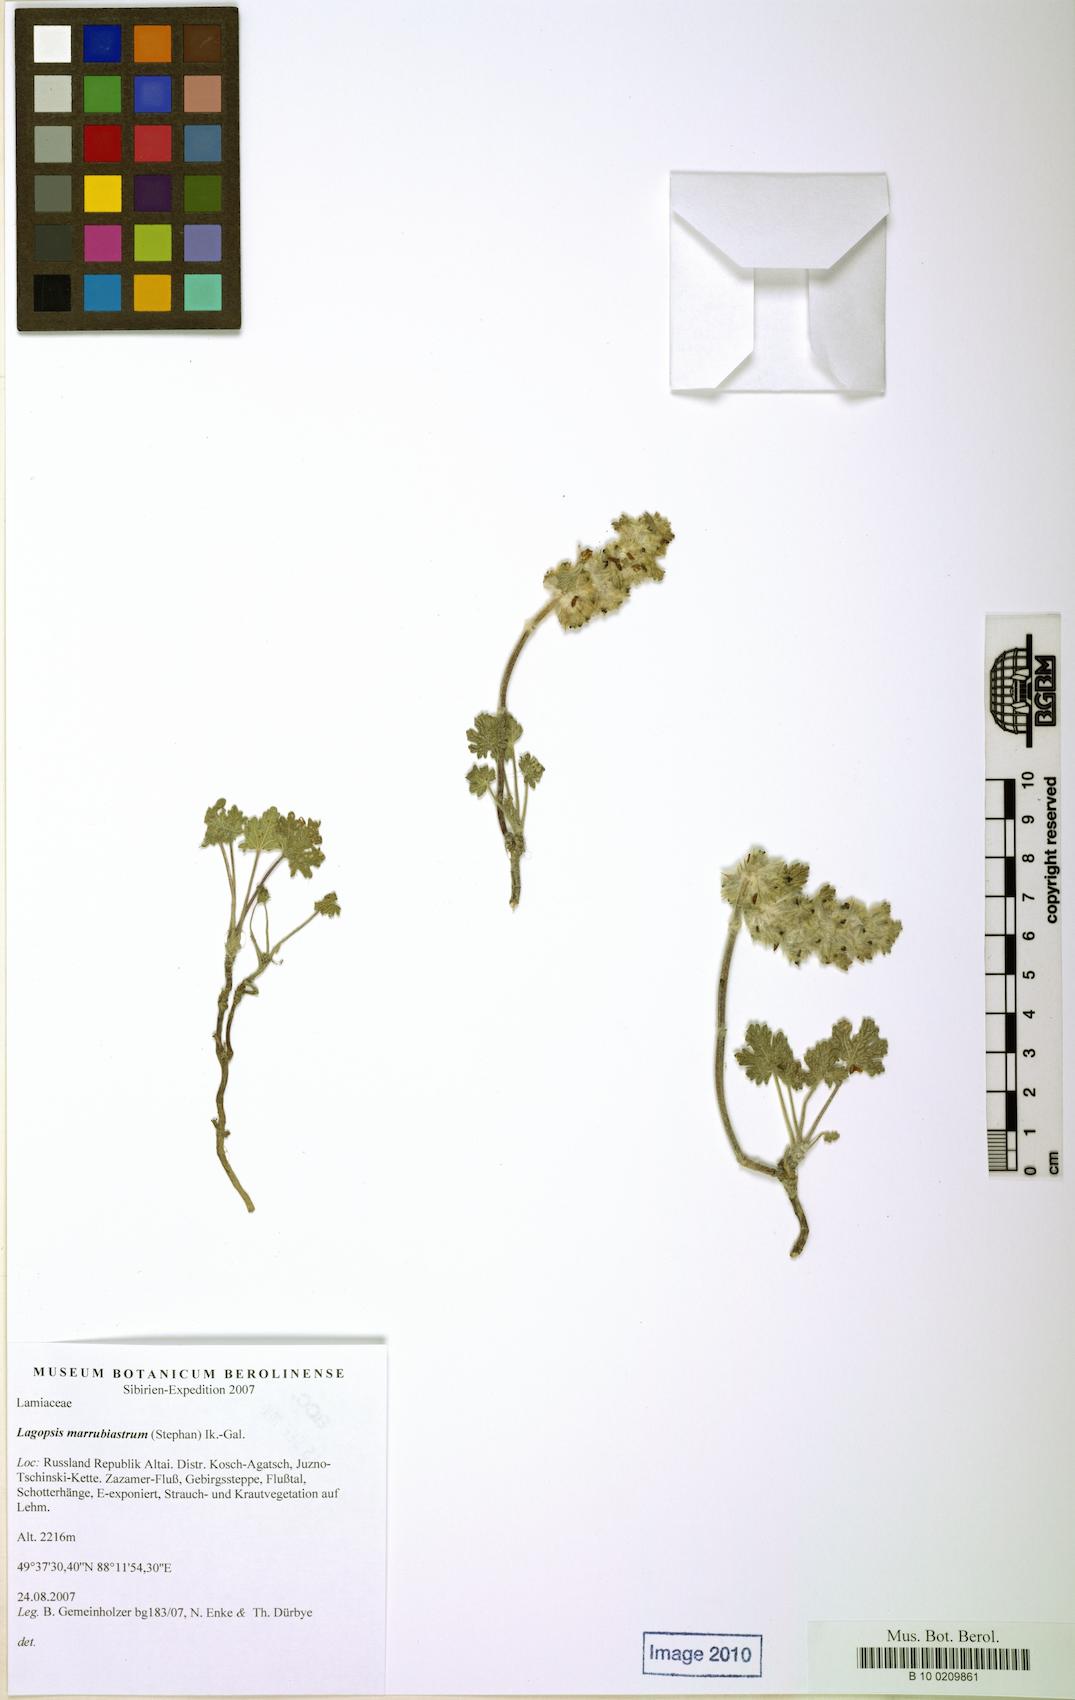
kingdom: Plantae
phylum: Tracheophyta
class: Magnoliopsida
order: Lamiales
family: Lamiaceae
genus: Lagopsis
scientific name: Lagopsis marrubiastrum
